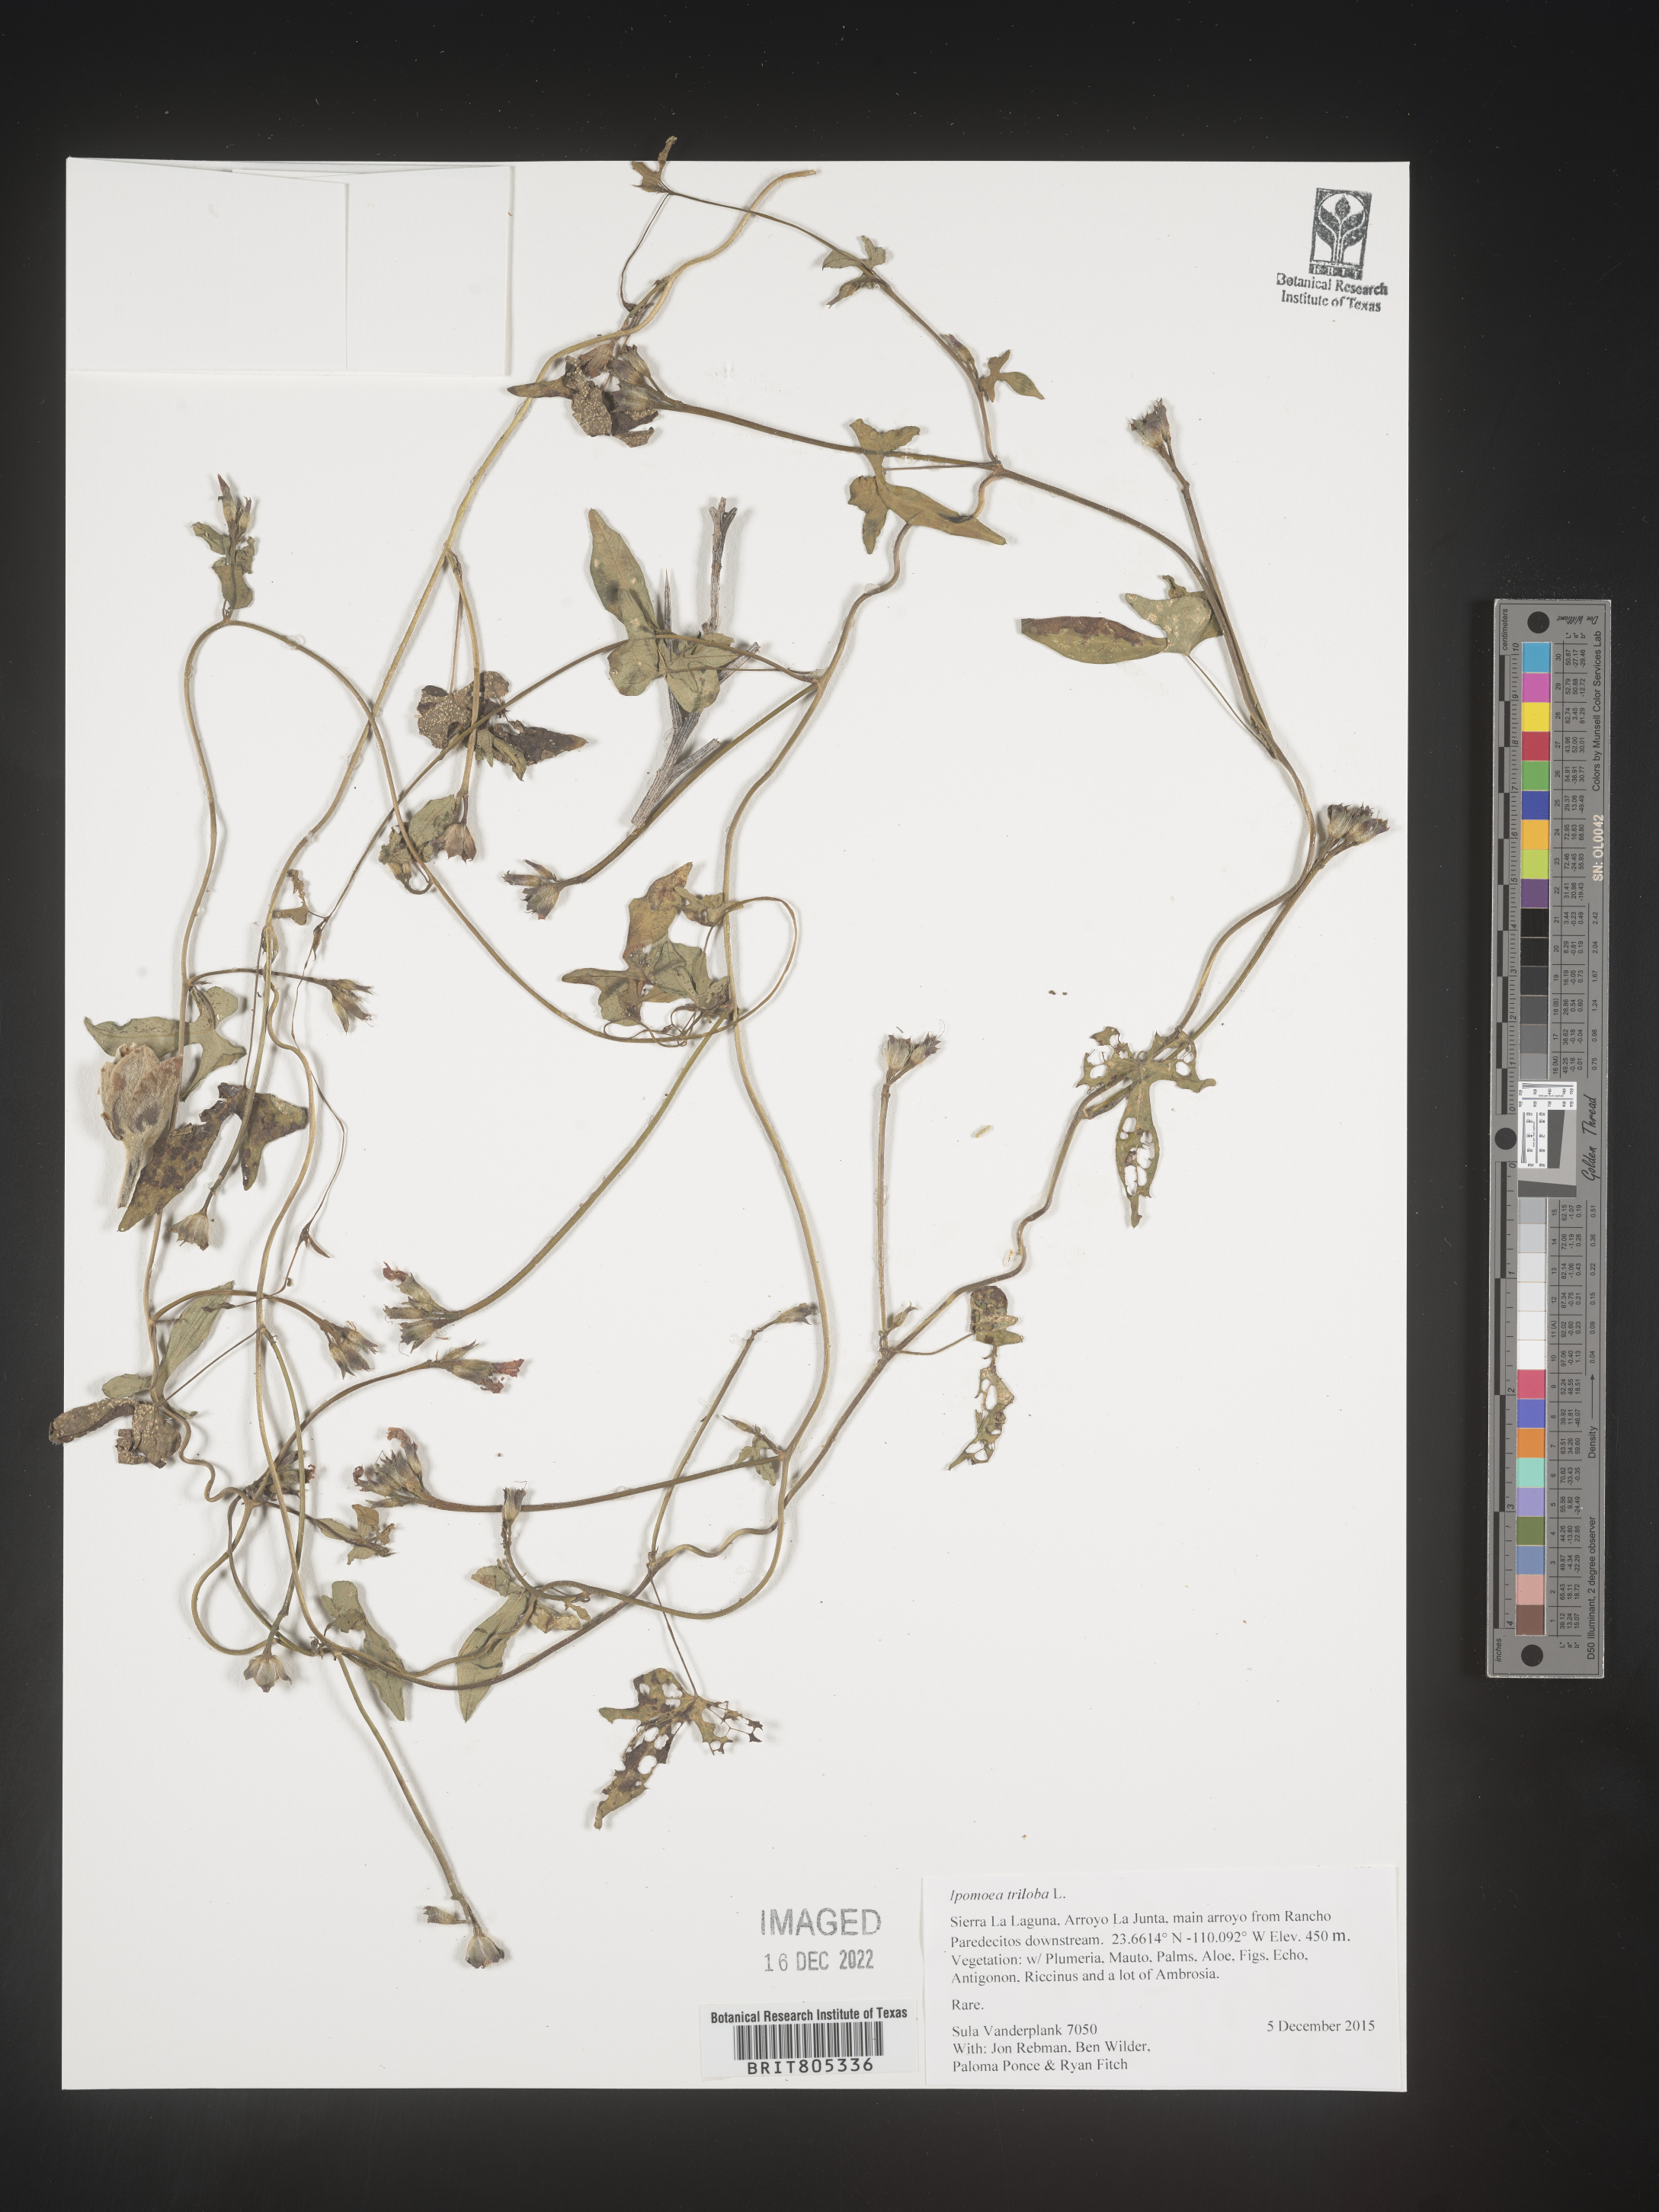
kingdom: Plantae
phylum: Tracheophyta
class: Magnoliopsida
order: Solanales
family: Convolvulaceae
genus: Ipomoea
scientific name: Ipomoea
